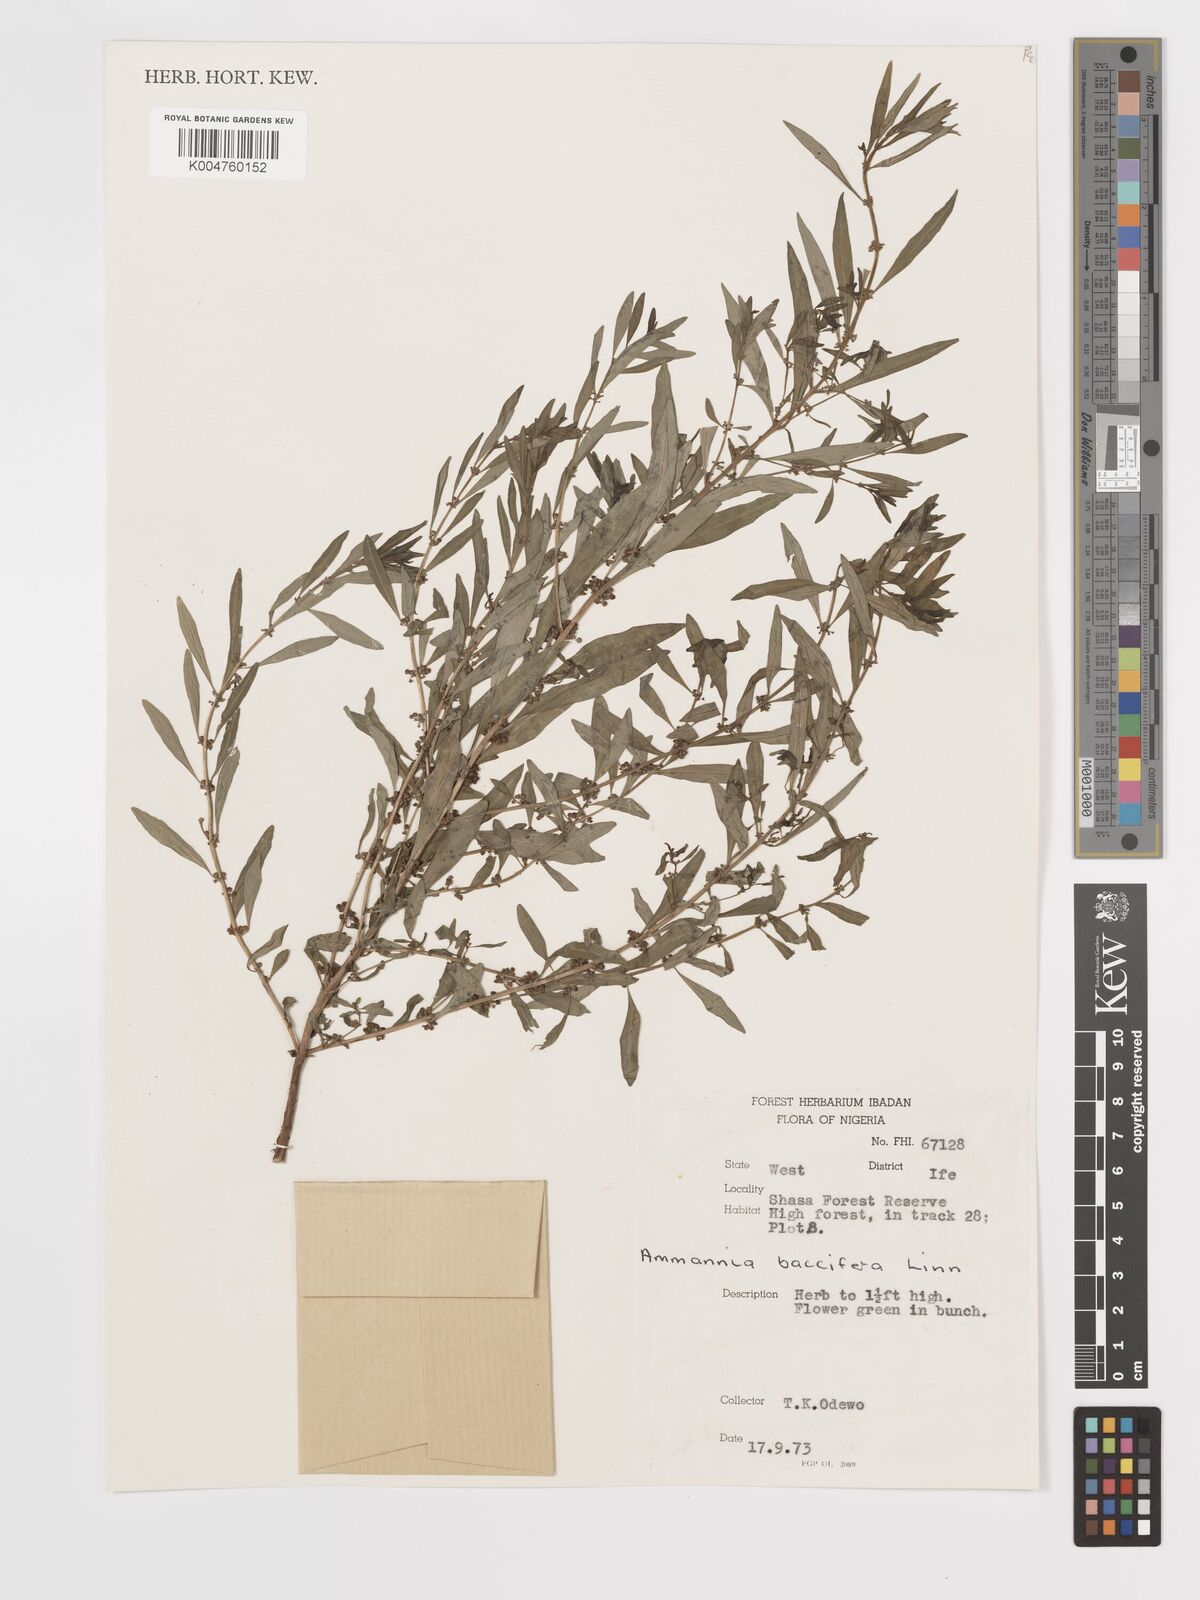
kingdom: Plantae
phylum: Tracheophyta
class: Magnoliopsida
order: Myrtales
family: Lythraceae
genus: Ammannia
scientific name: Ammannia
